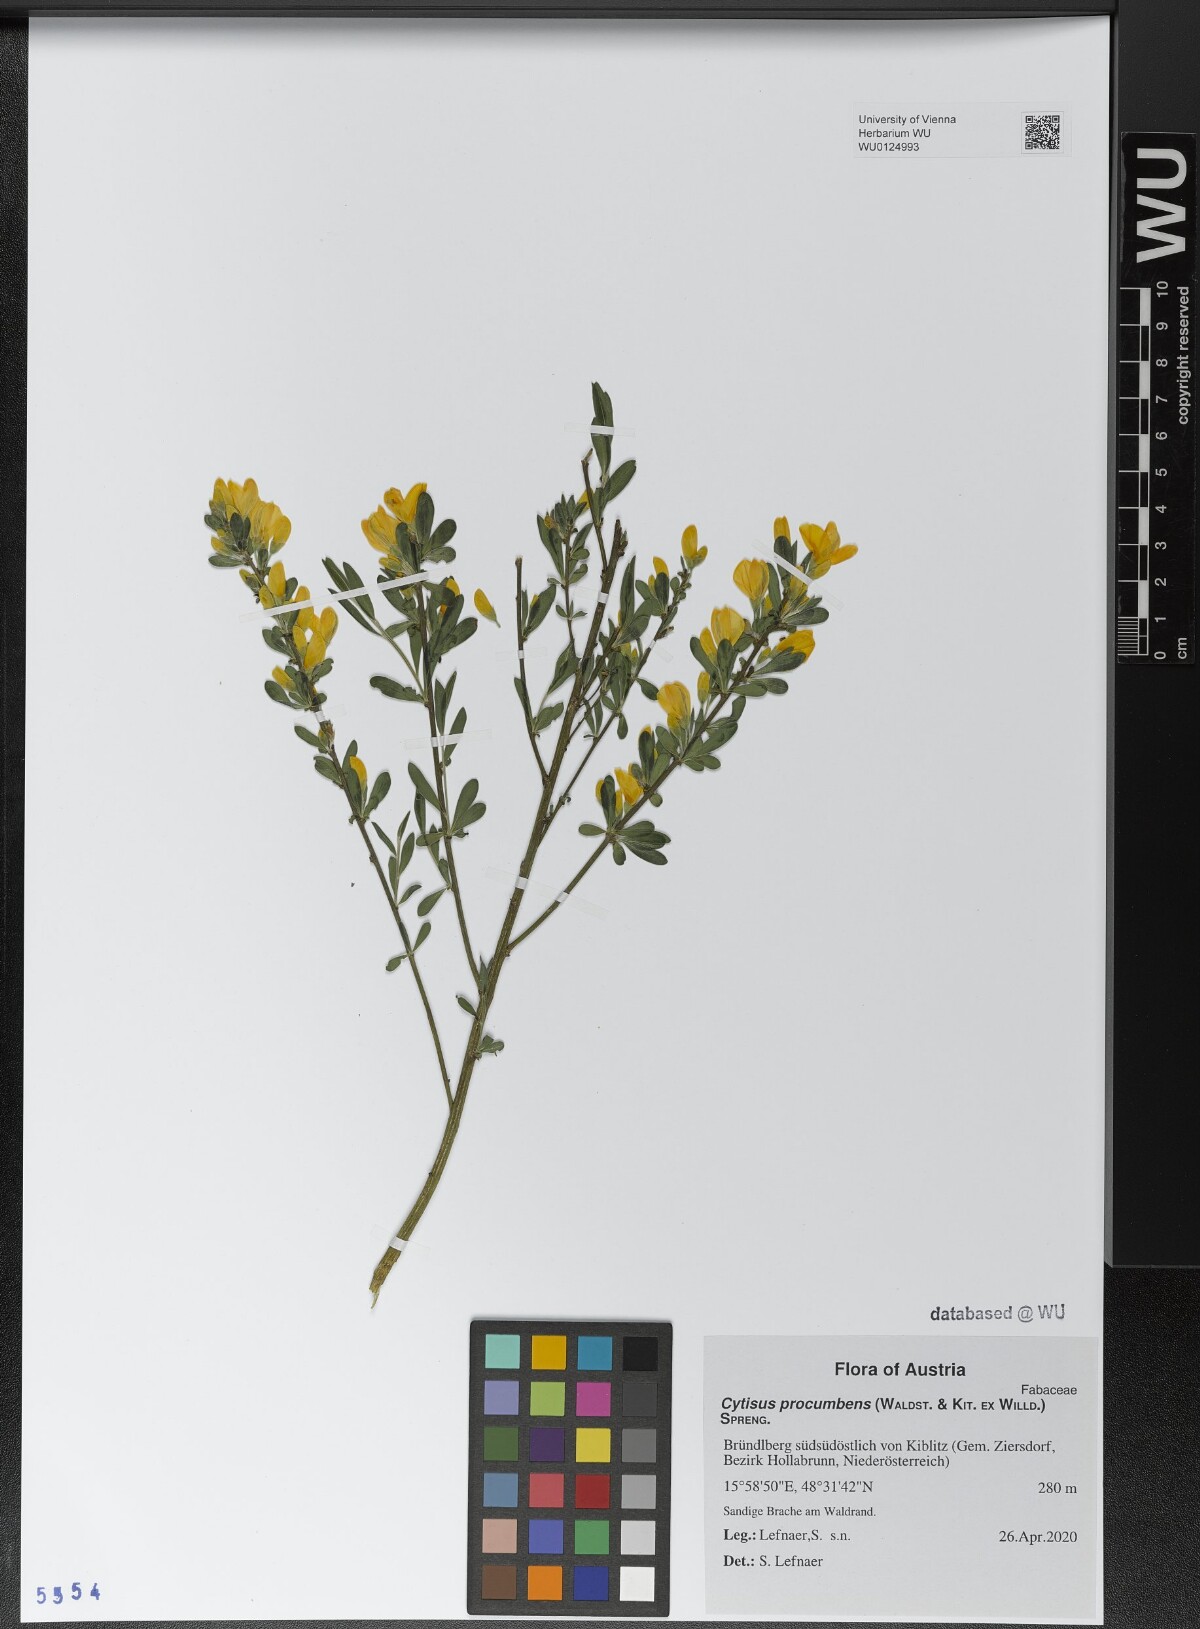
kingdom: Plantae
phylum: Tracheophyta
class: Magnoliopsida
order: Fabales
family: Fabaceae
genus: Cytisus
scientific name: Cytisus procumbens
